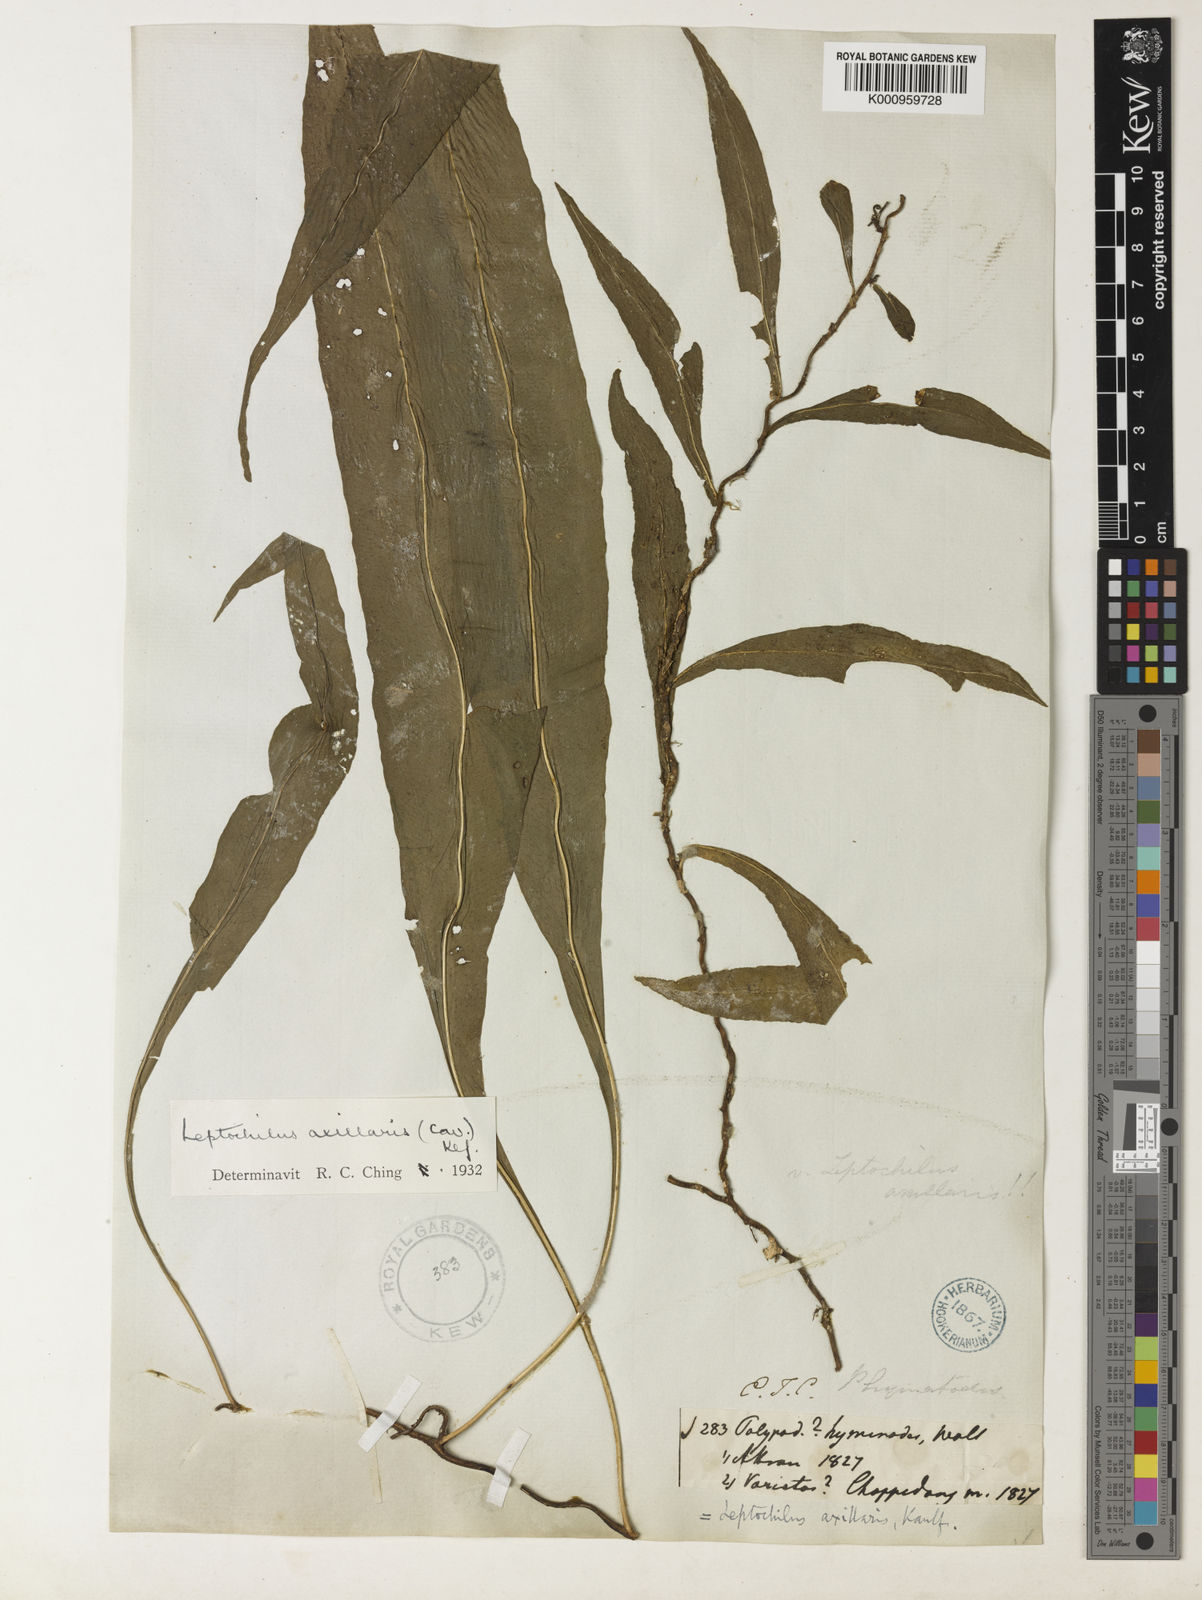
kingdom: Plantae
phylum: Tracheophyta
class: Polypodiopsida
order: Polypodiales
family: Polypodiaceae
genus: Leptochilus
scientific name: Leptochilus axillaris
